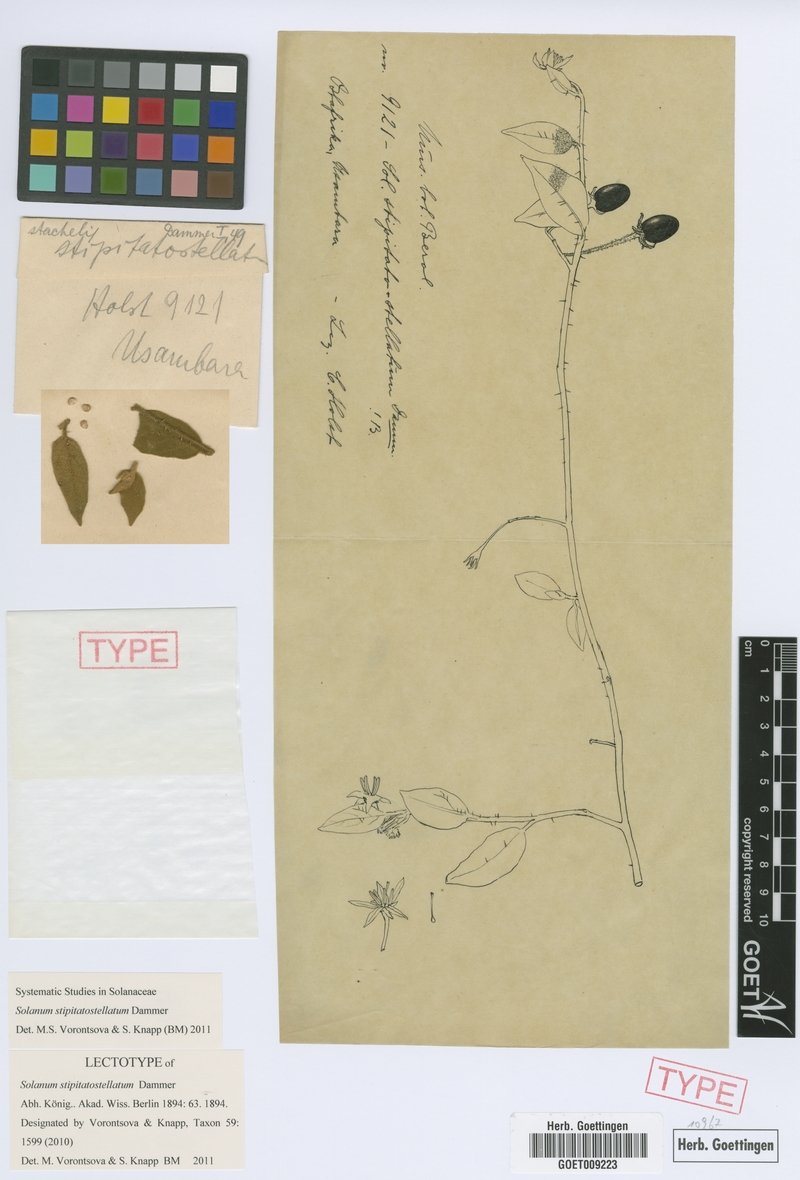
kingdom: Plantae
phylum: Tracheophyta
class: Magnoliopsida
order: Solanales
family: Solanaceae
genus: Solanum
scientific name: Solanum stipitatostellatum
